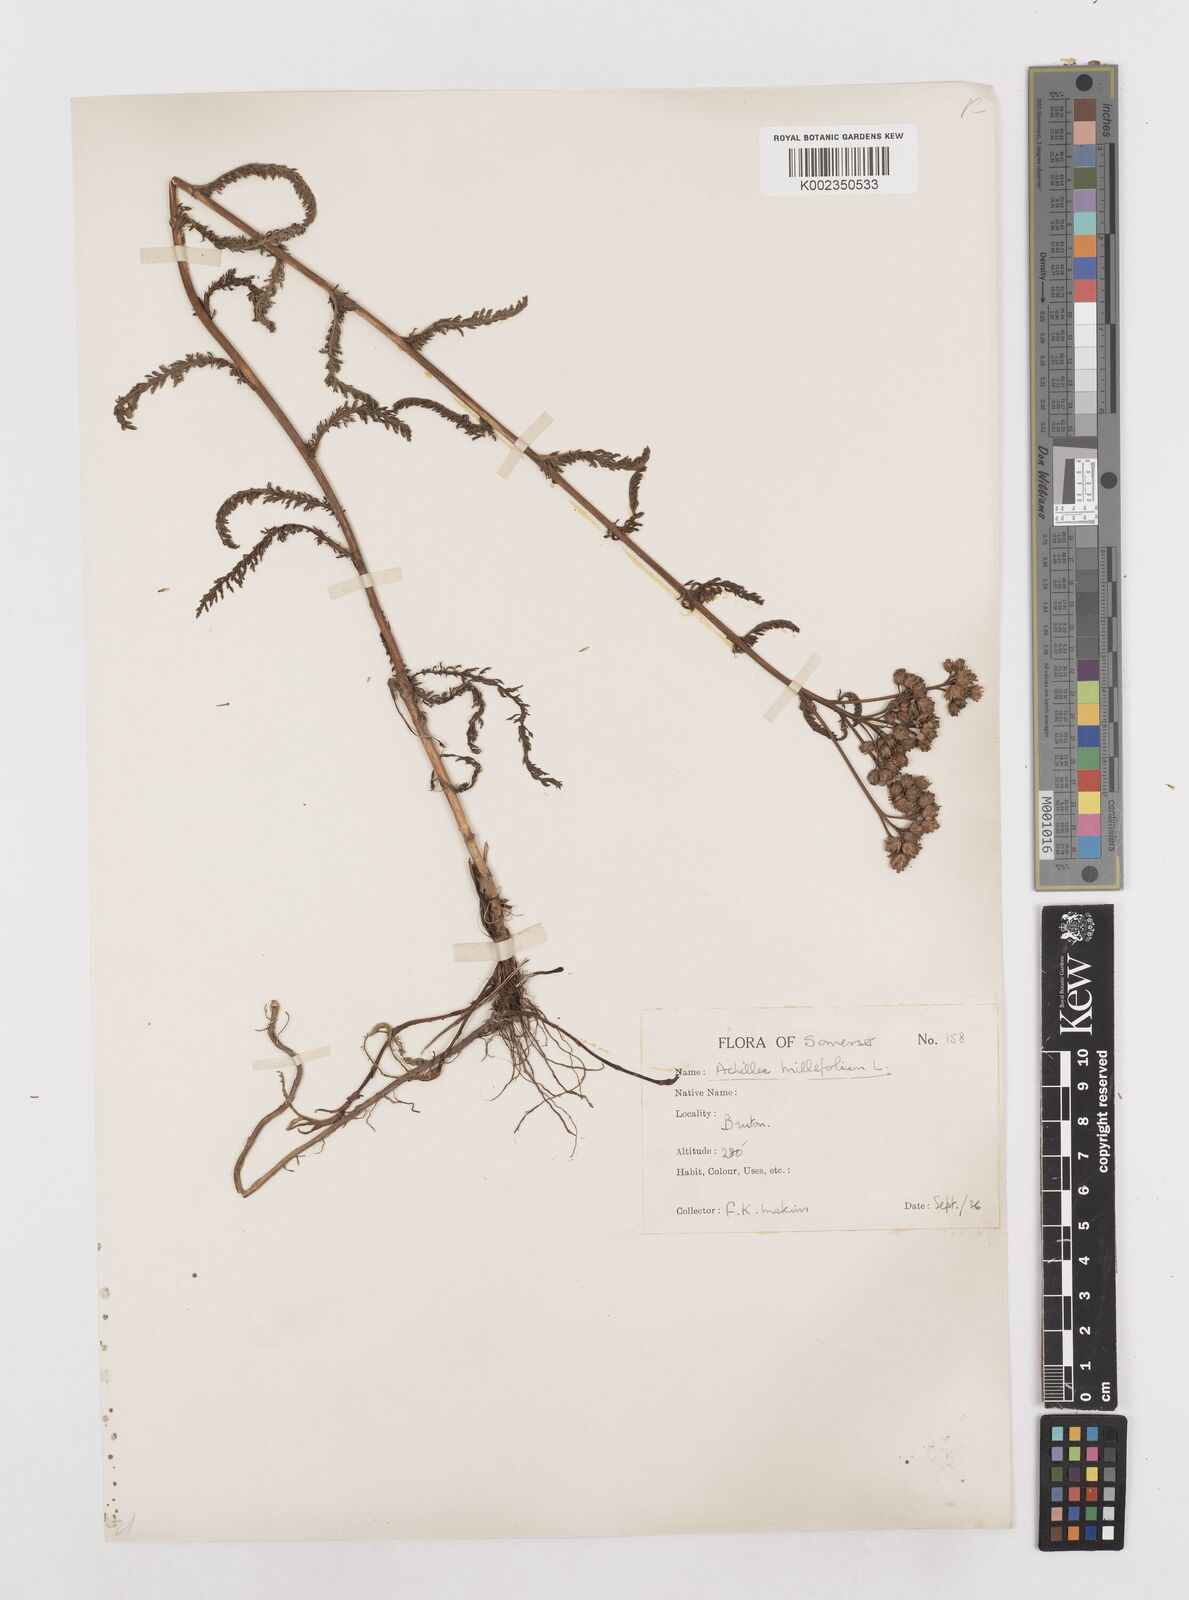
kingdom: Plantae
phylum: Tracheophyta
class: Magnoliopsida
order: Asterales
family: Asteraceae
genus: Achillea
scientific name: Achillea ptarmica
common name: Sneezeweed
